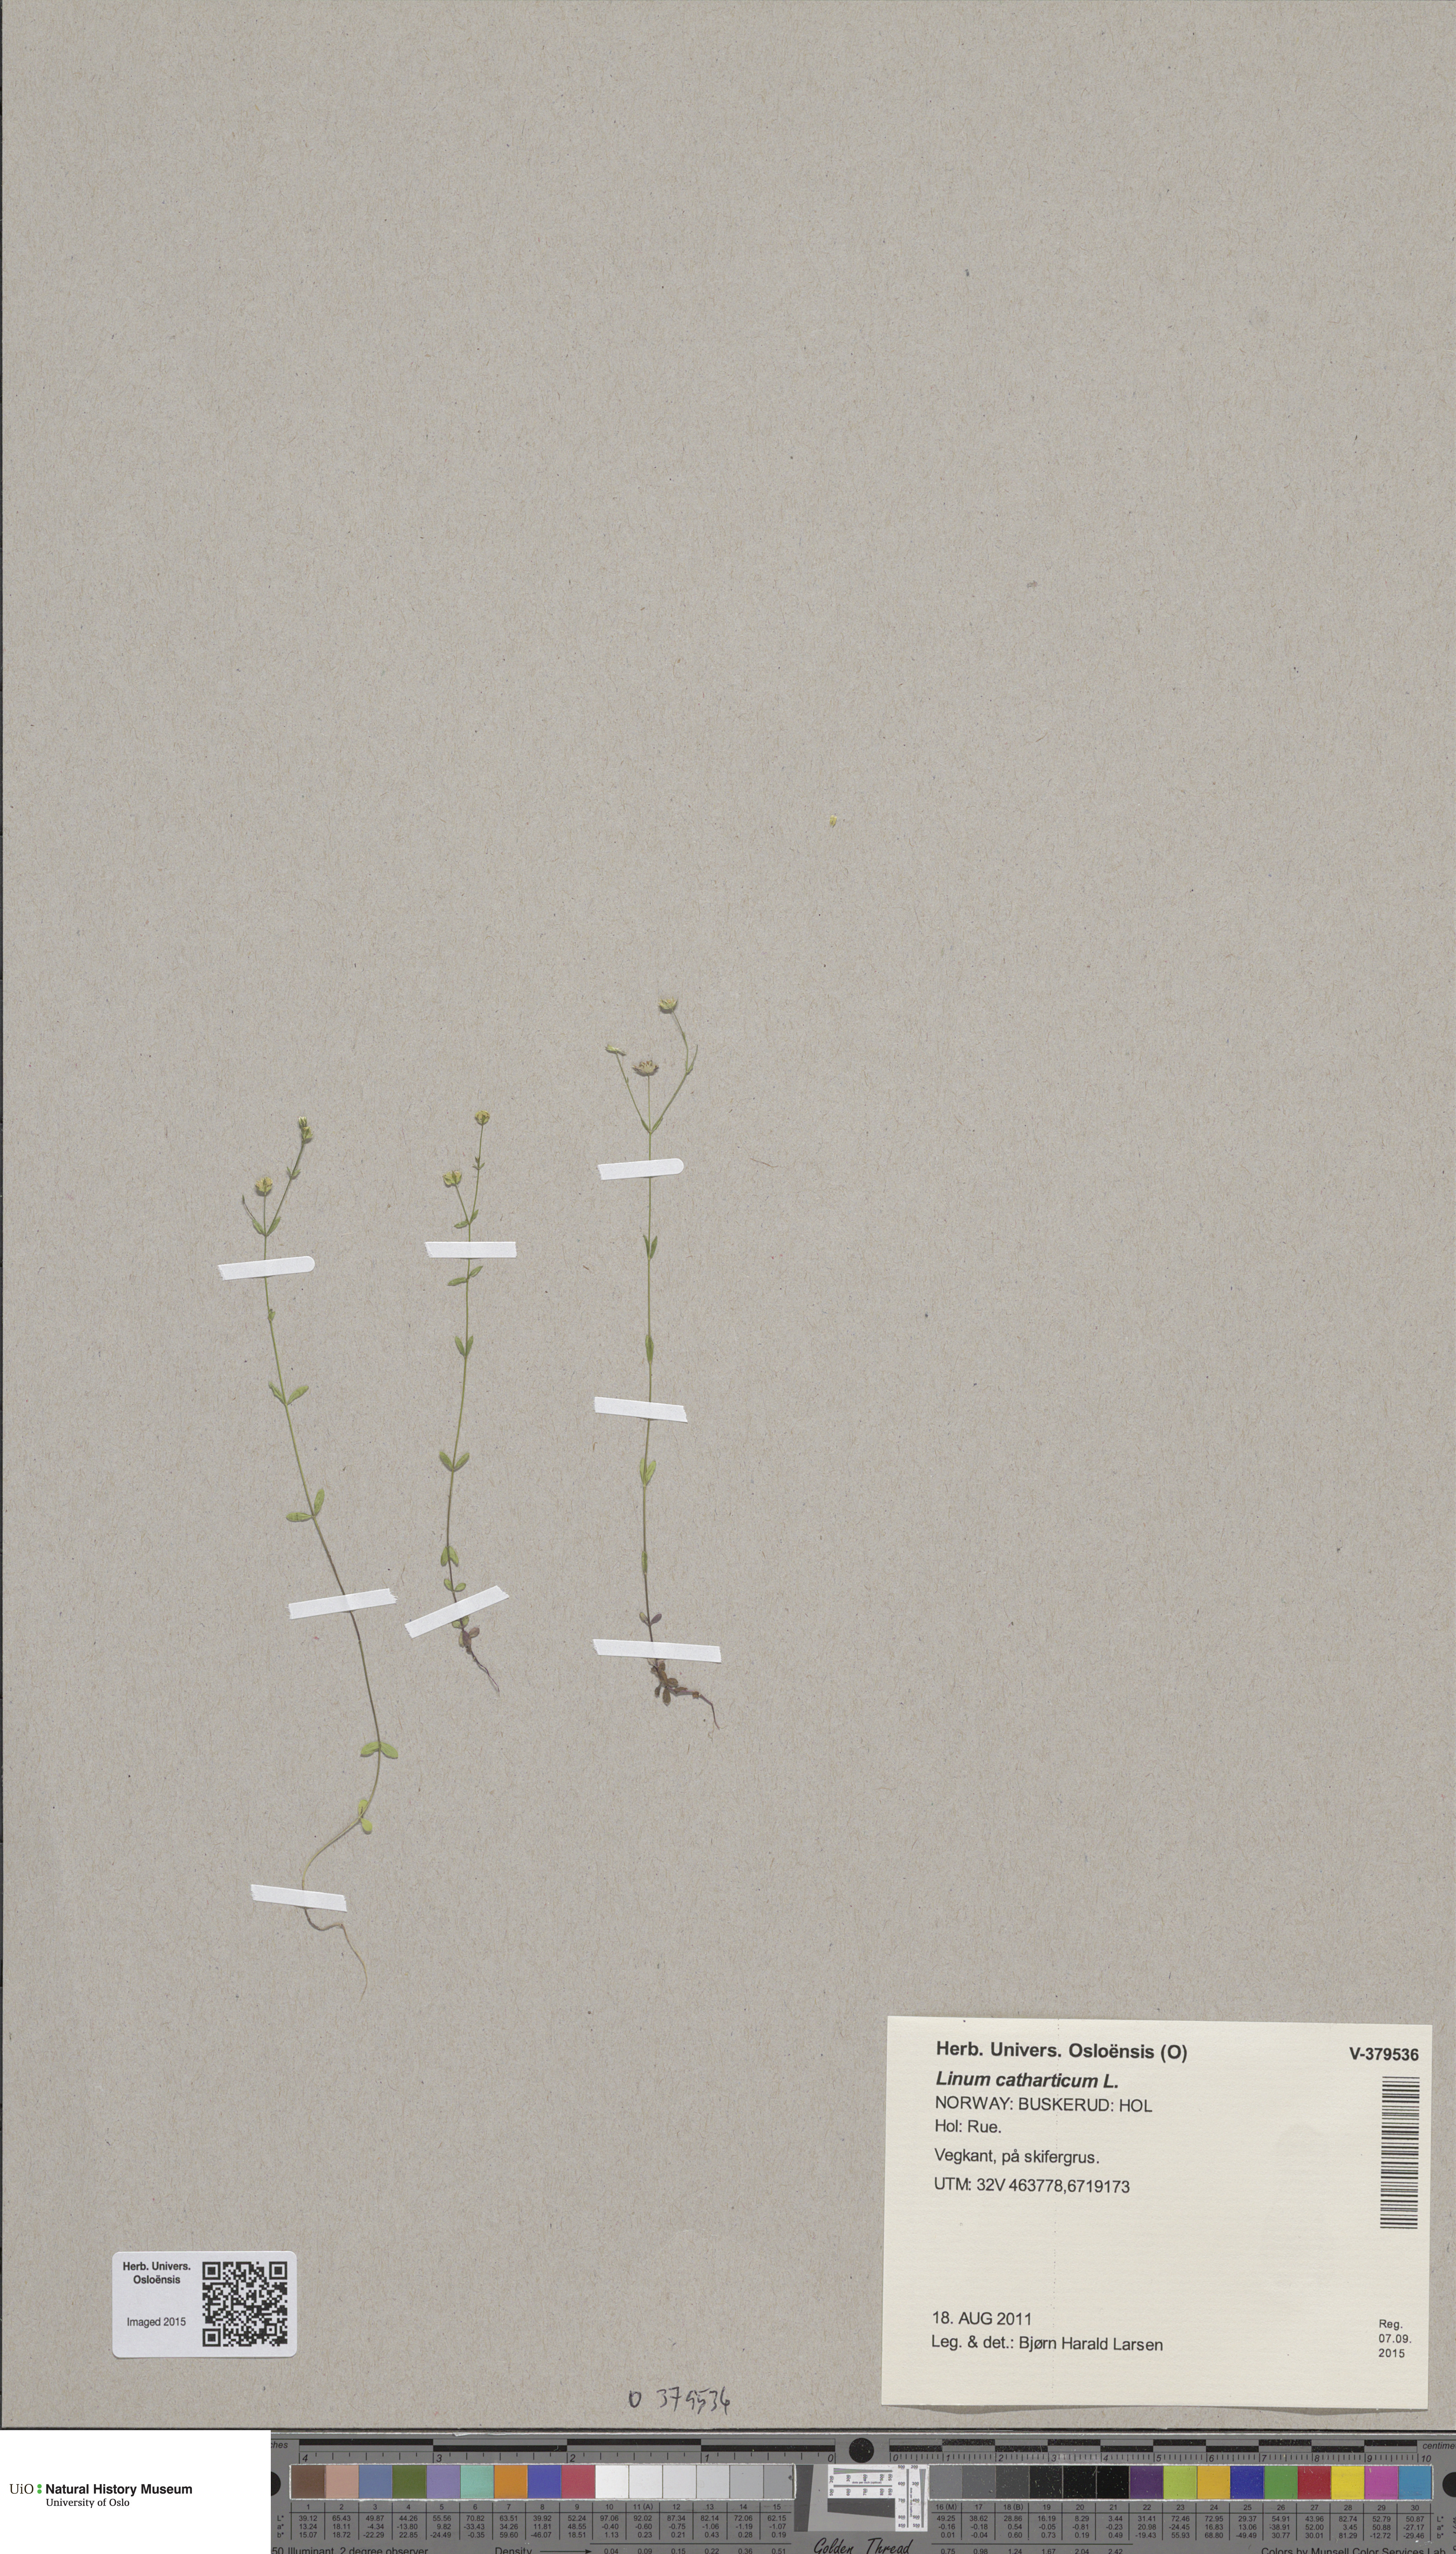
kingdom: Plantae
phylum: Tracheophyta
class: Magnoliopsida
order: Malpighiales
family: Linaceae
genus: Linum
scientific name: Linum catharticum
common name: Fairy flax
